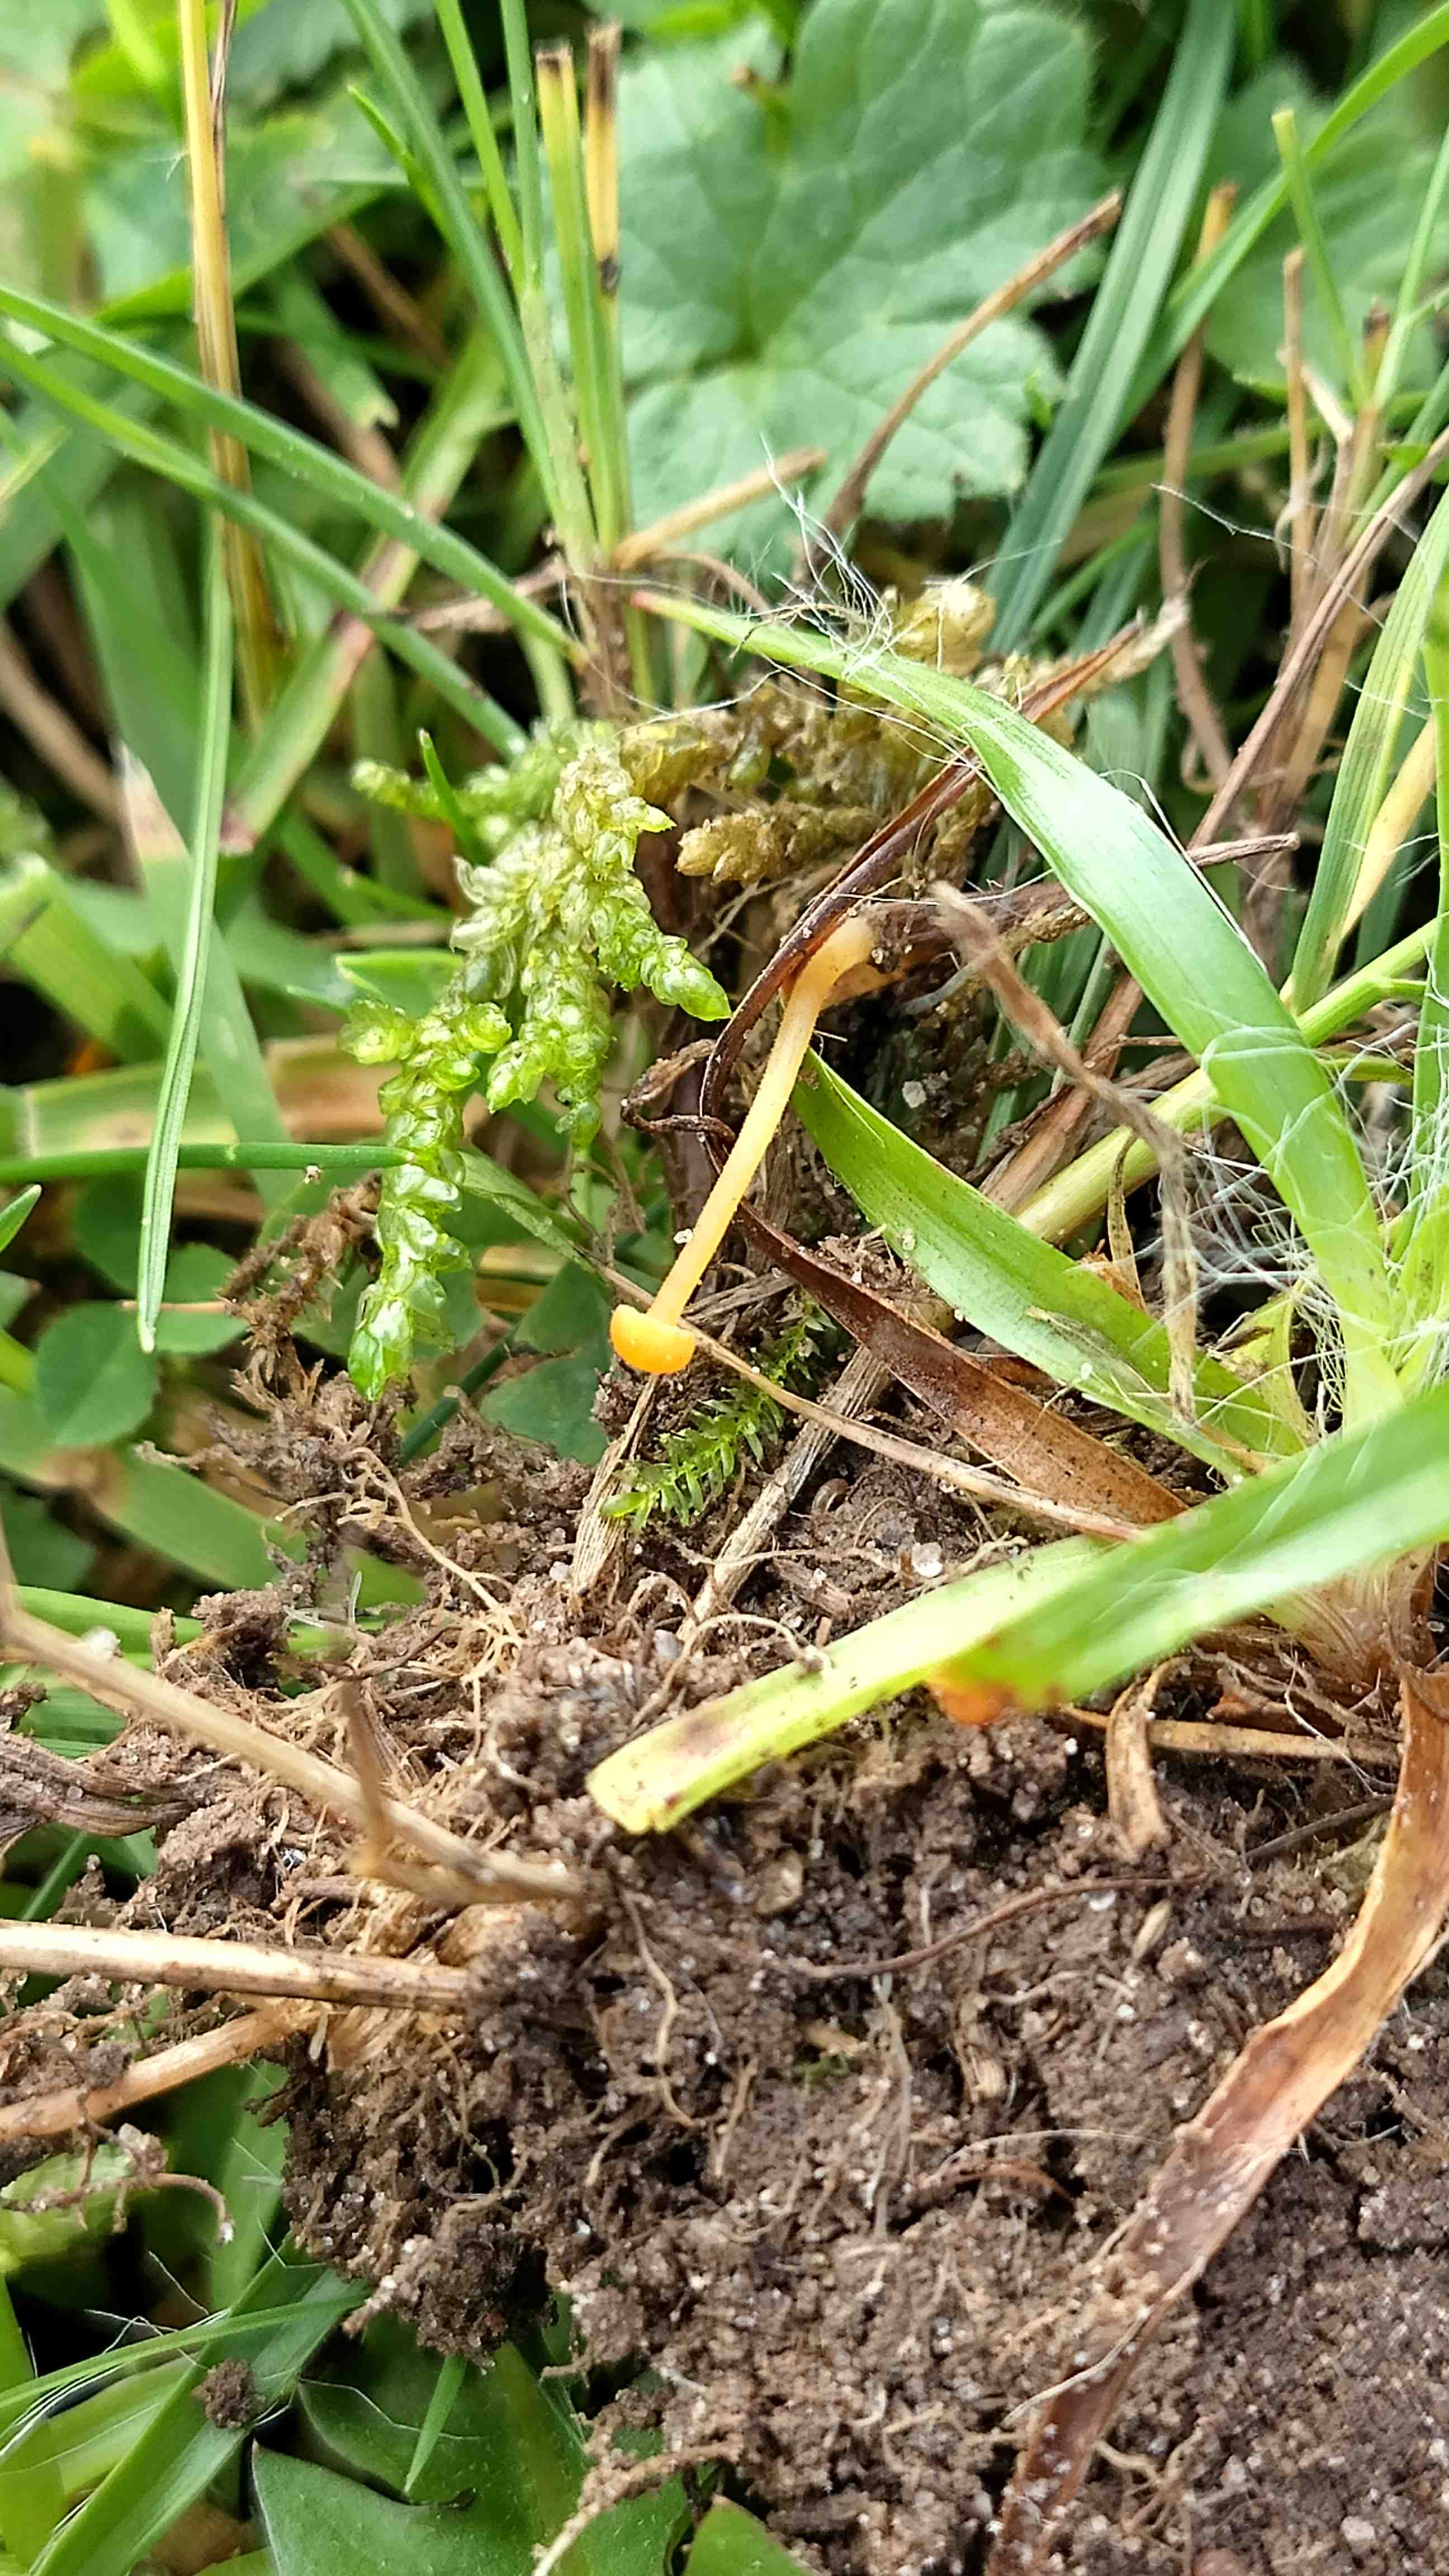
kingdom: Fungi
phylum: Basidiomycota
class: Agaricomycetes
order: Hymenochaetales
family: Rickenellaceae
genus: Rickenella
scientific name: Rickenella fibula
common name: orange mosnavlehat
